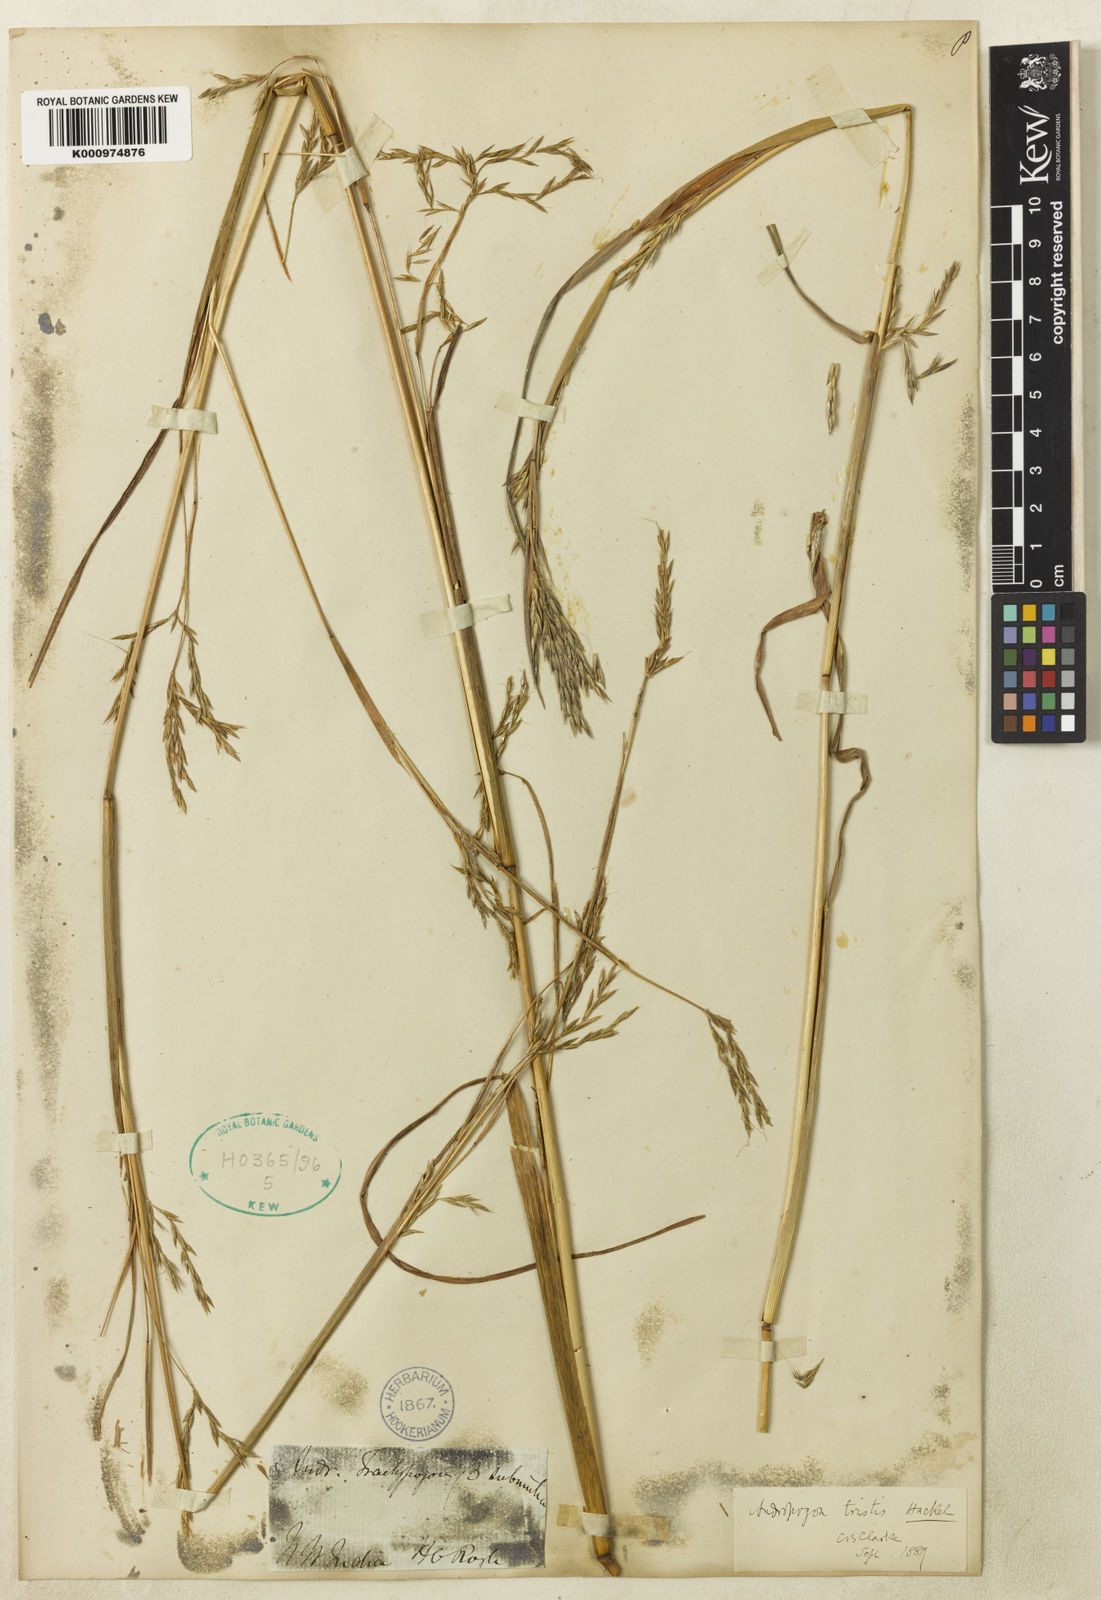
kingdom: Plantae
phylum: Tracheophyta
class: Liliopsida
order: Poales
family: Poaceae
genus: Andropogon
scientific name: Andropogon munroi
